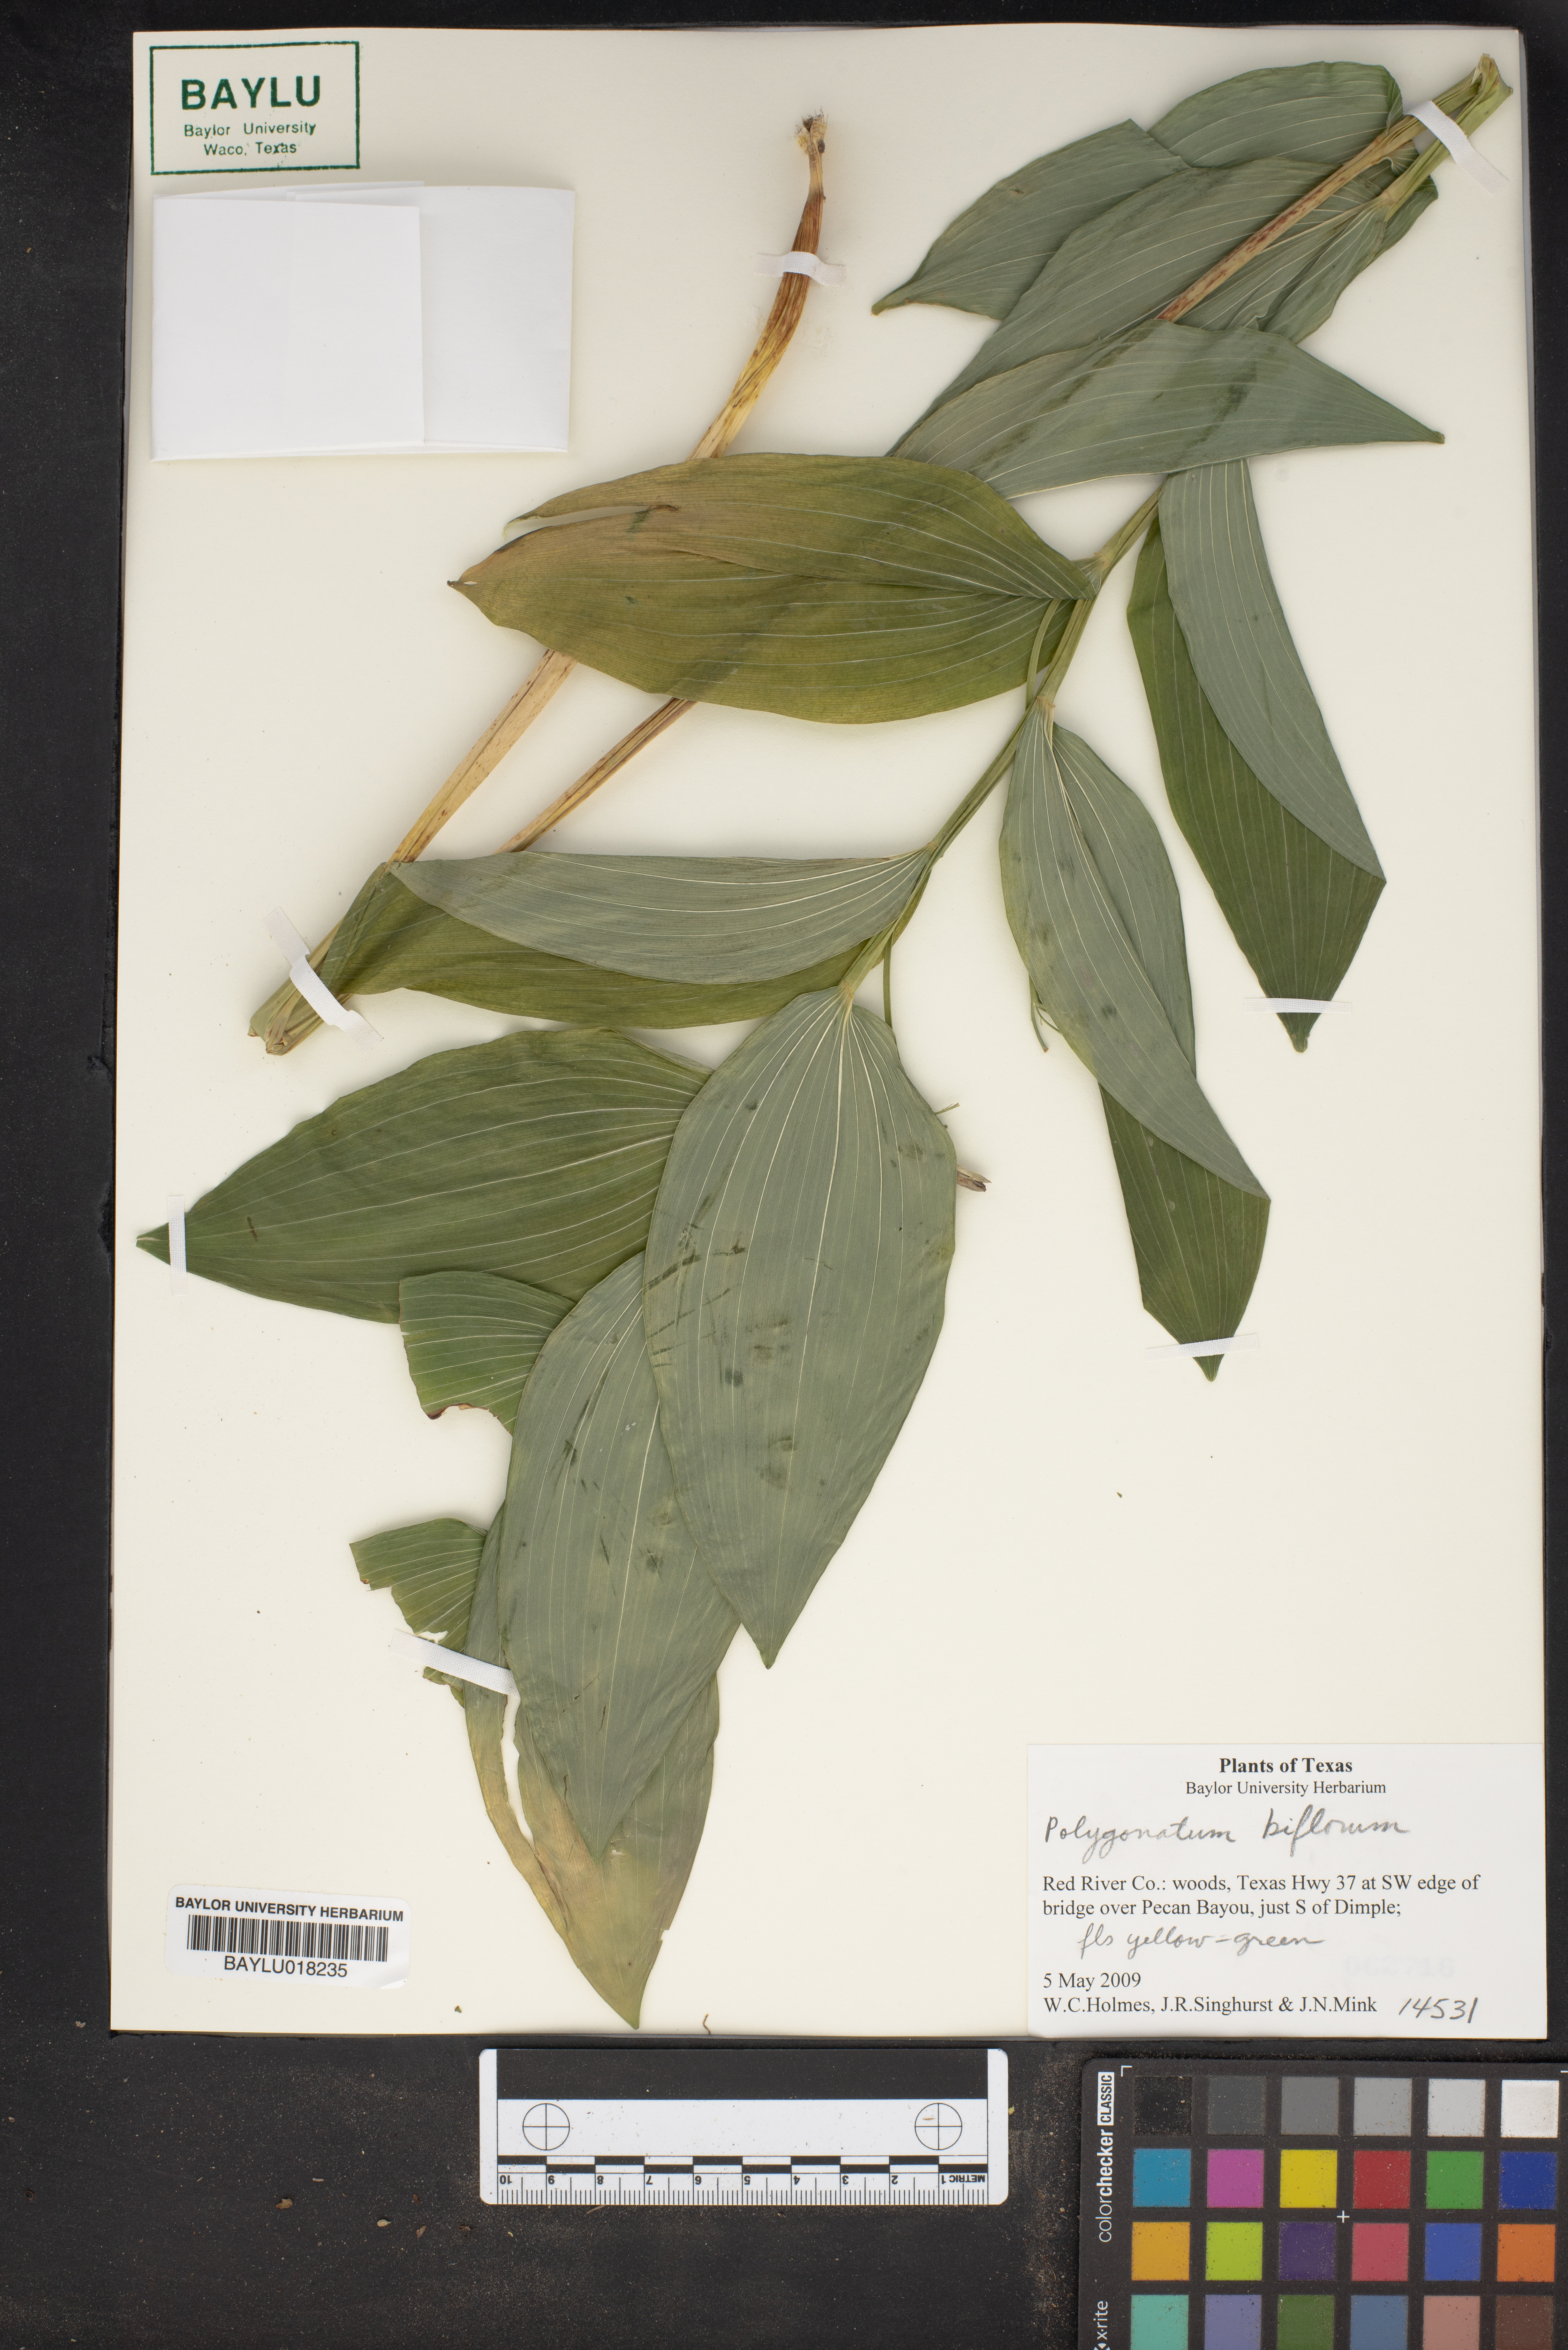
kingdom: Plantae
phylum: Tracheophyta
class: Liliopsida
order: Asparagales
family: Asparagaceae
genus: Polygonatum
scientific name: Polygonatum biflorum
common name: American solomon's-seal
